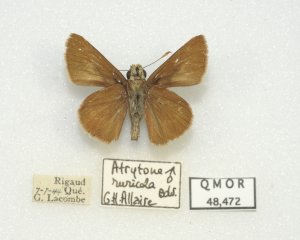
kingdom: Animalia
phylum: Arthropoda
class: Insecta
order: Lepidoptera
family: Hesperiidae
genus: Euphyes
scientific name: Euphyes vestris
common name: Dun Skipper
